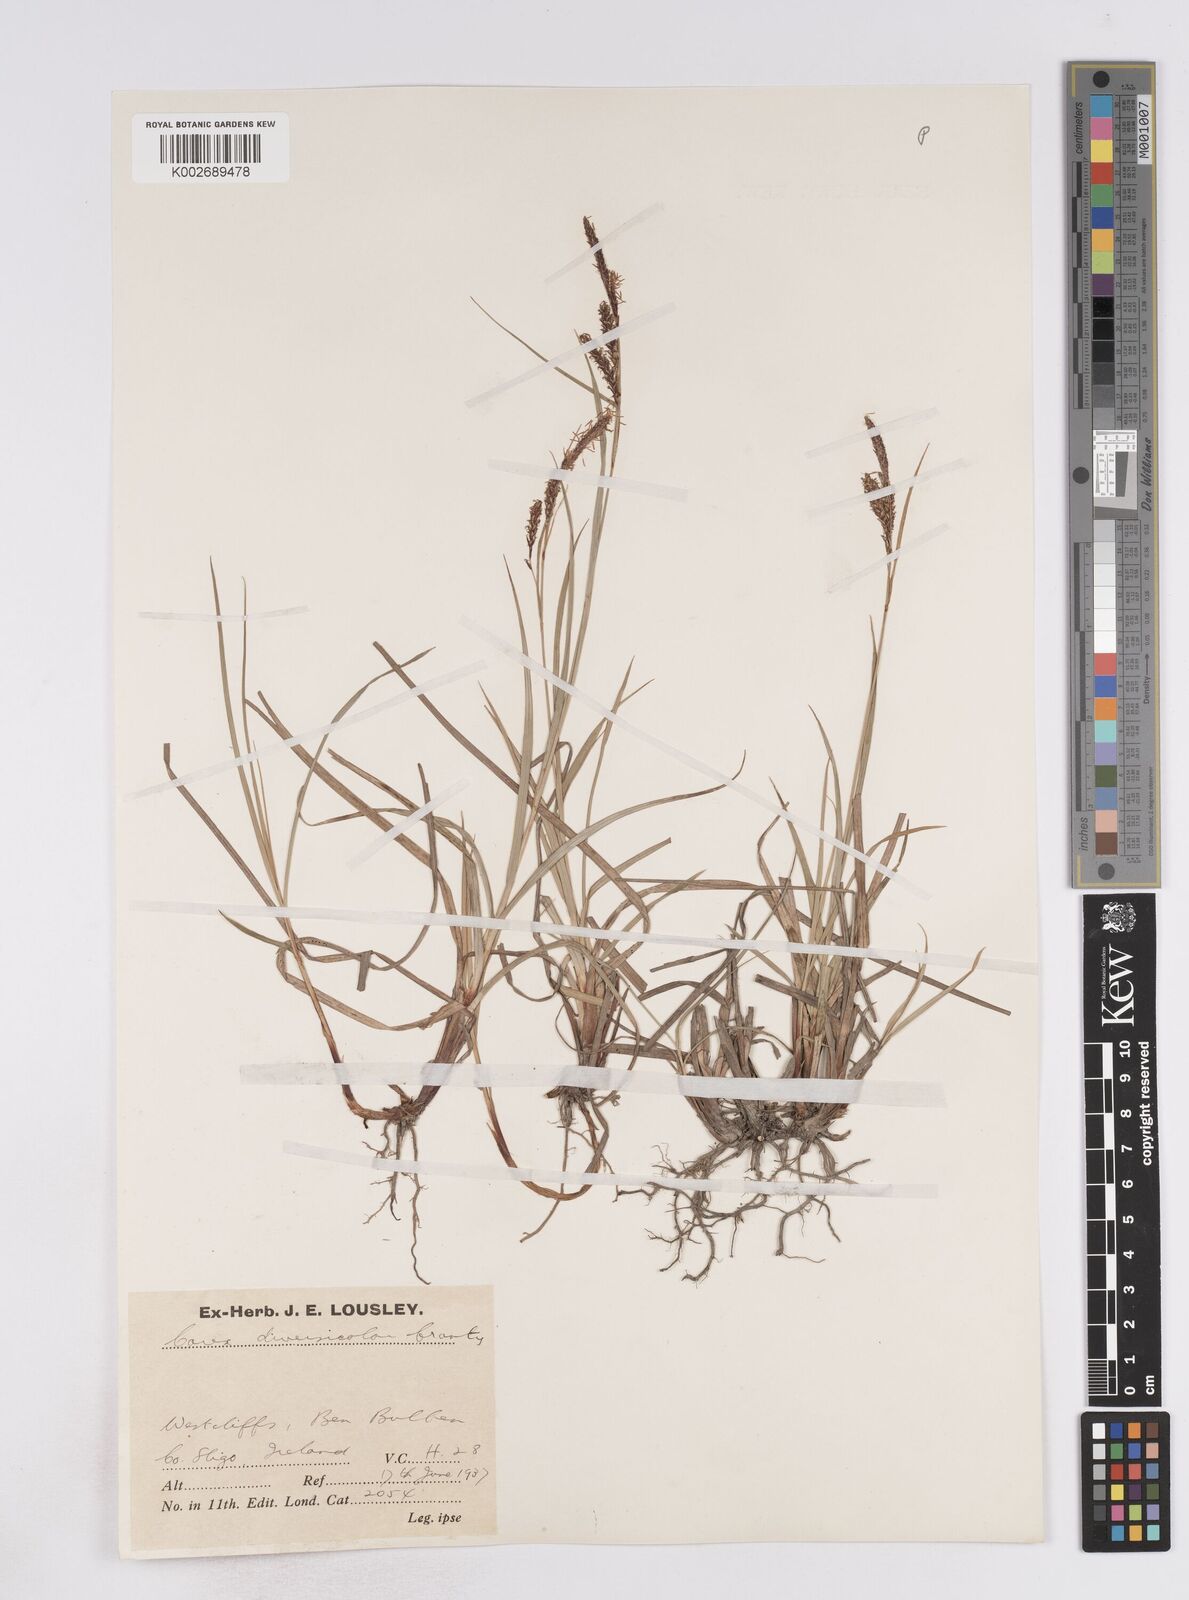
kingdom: Plantae
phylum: Tracheophyta
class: Liliopsida
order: Poales
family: Cyperaceae
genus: Carex
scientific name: Carex flacca
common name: Glaucous sedge
